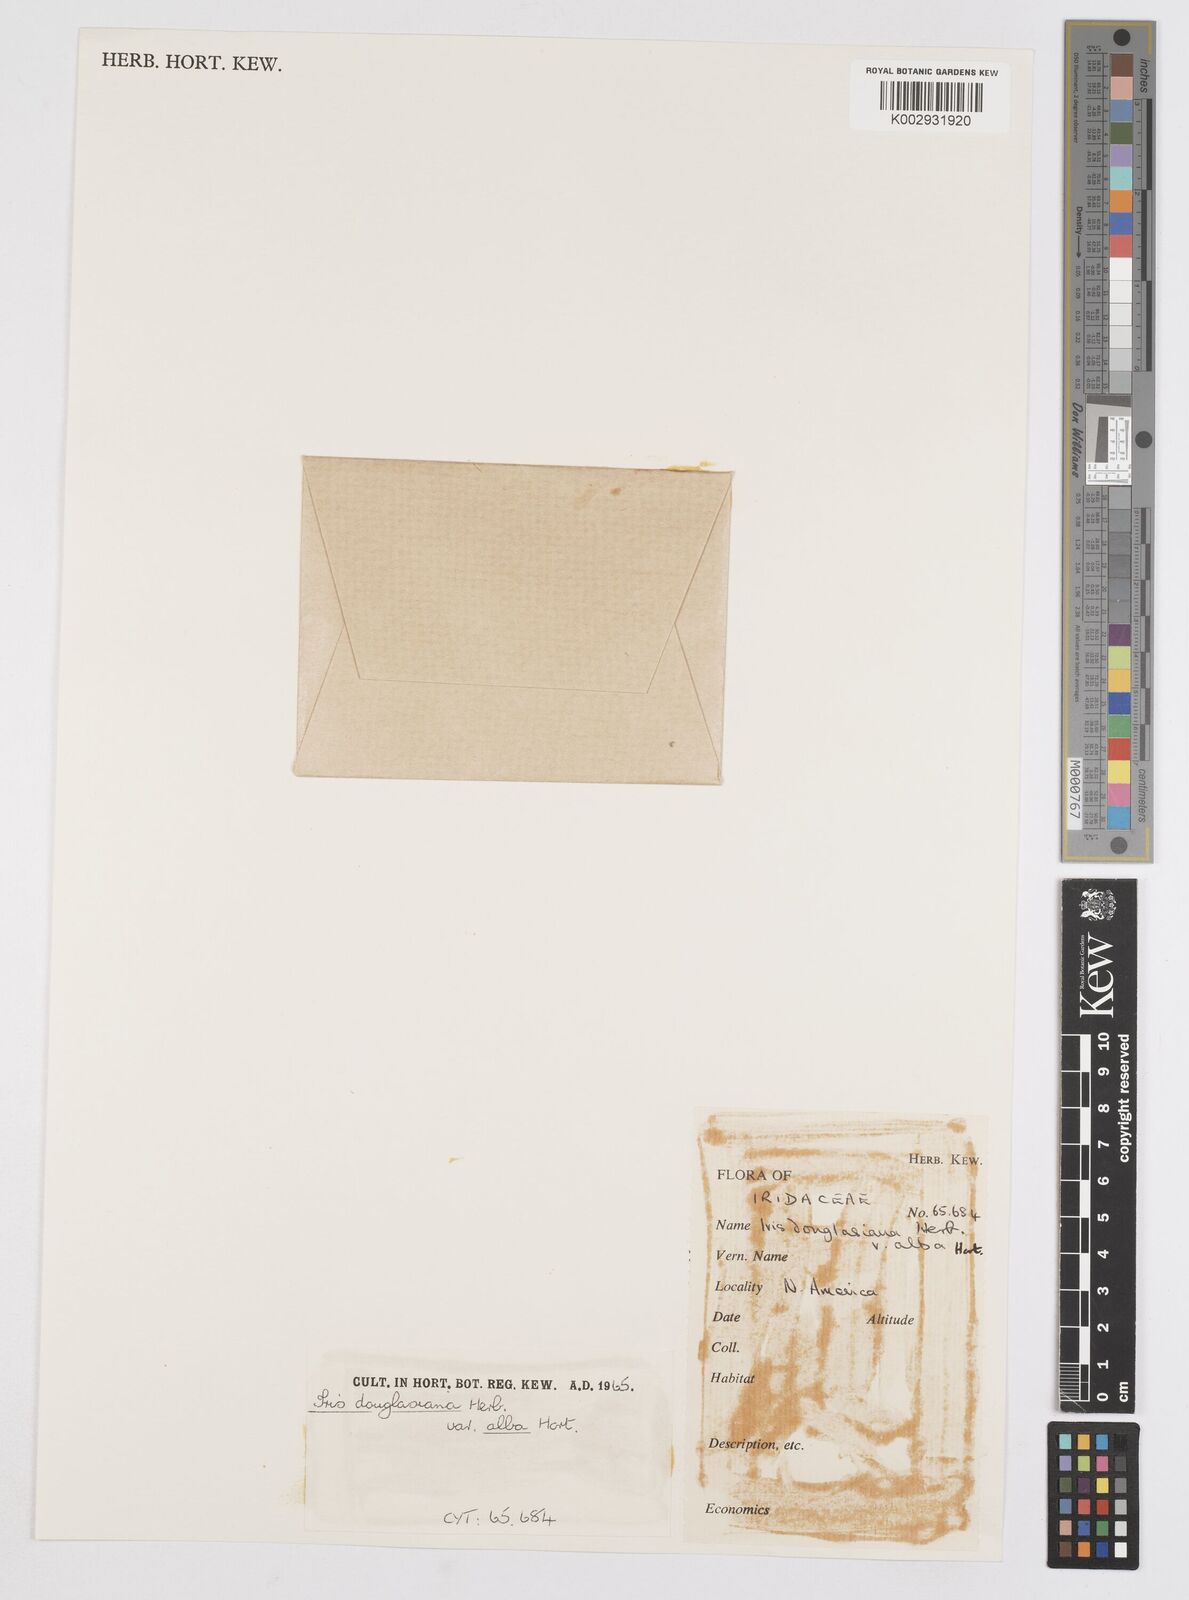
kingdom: Plantae
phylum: Tracheophyta
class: Liliopsida
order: Asparagales
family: Iridaceae
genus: Iris
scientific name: Iris douglasiana
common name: Marin iris
